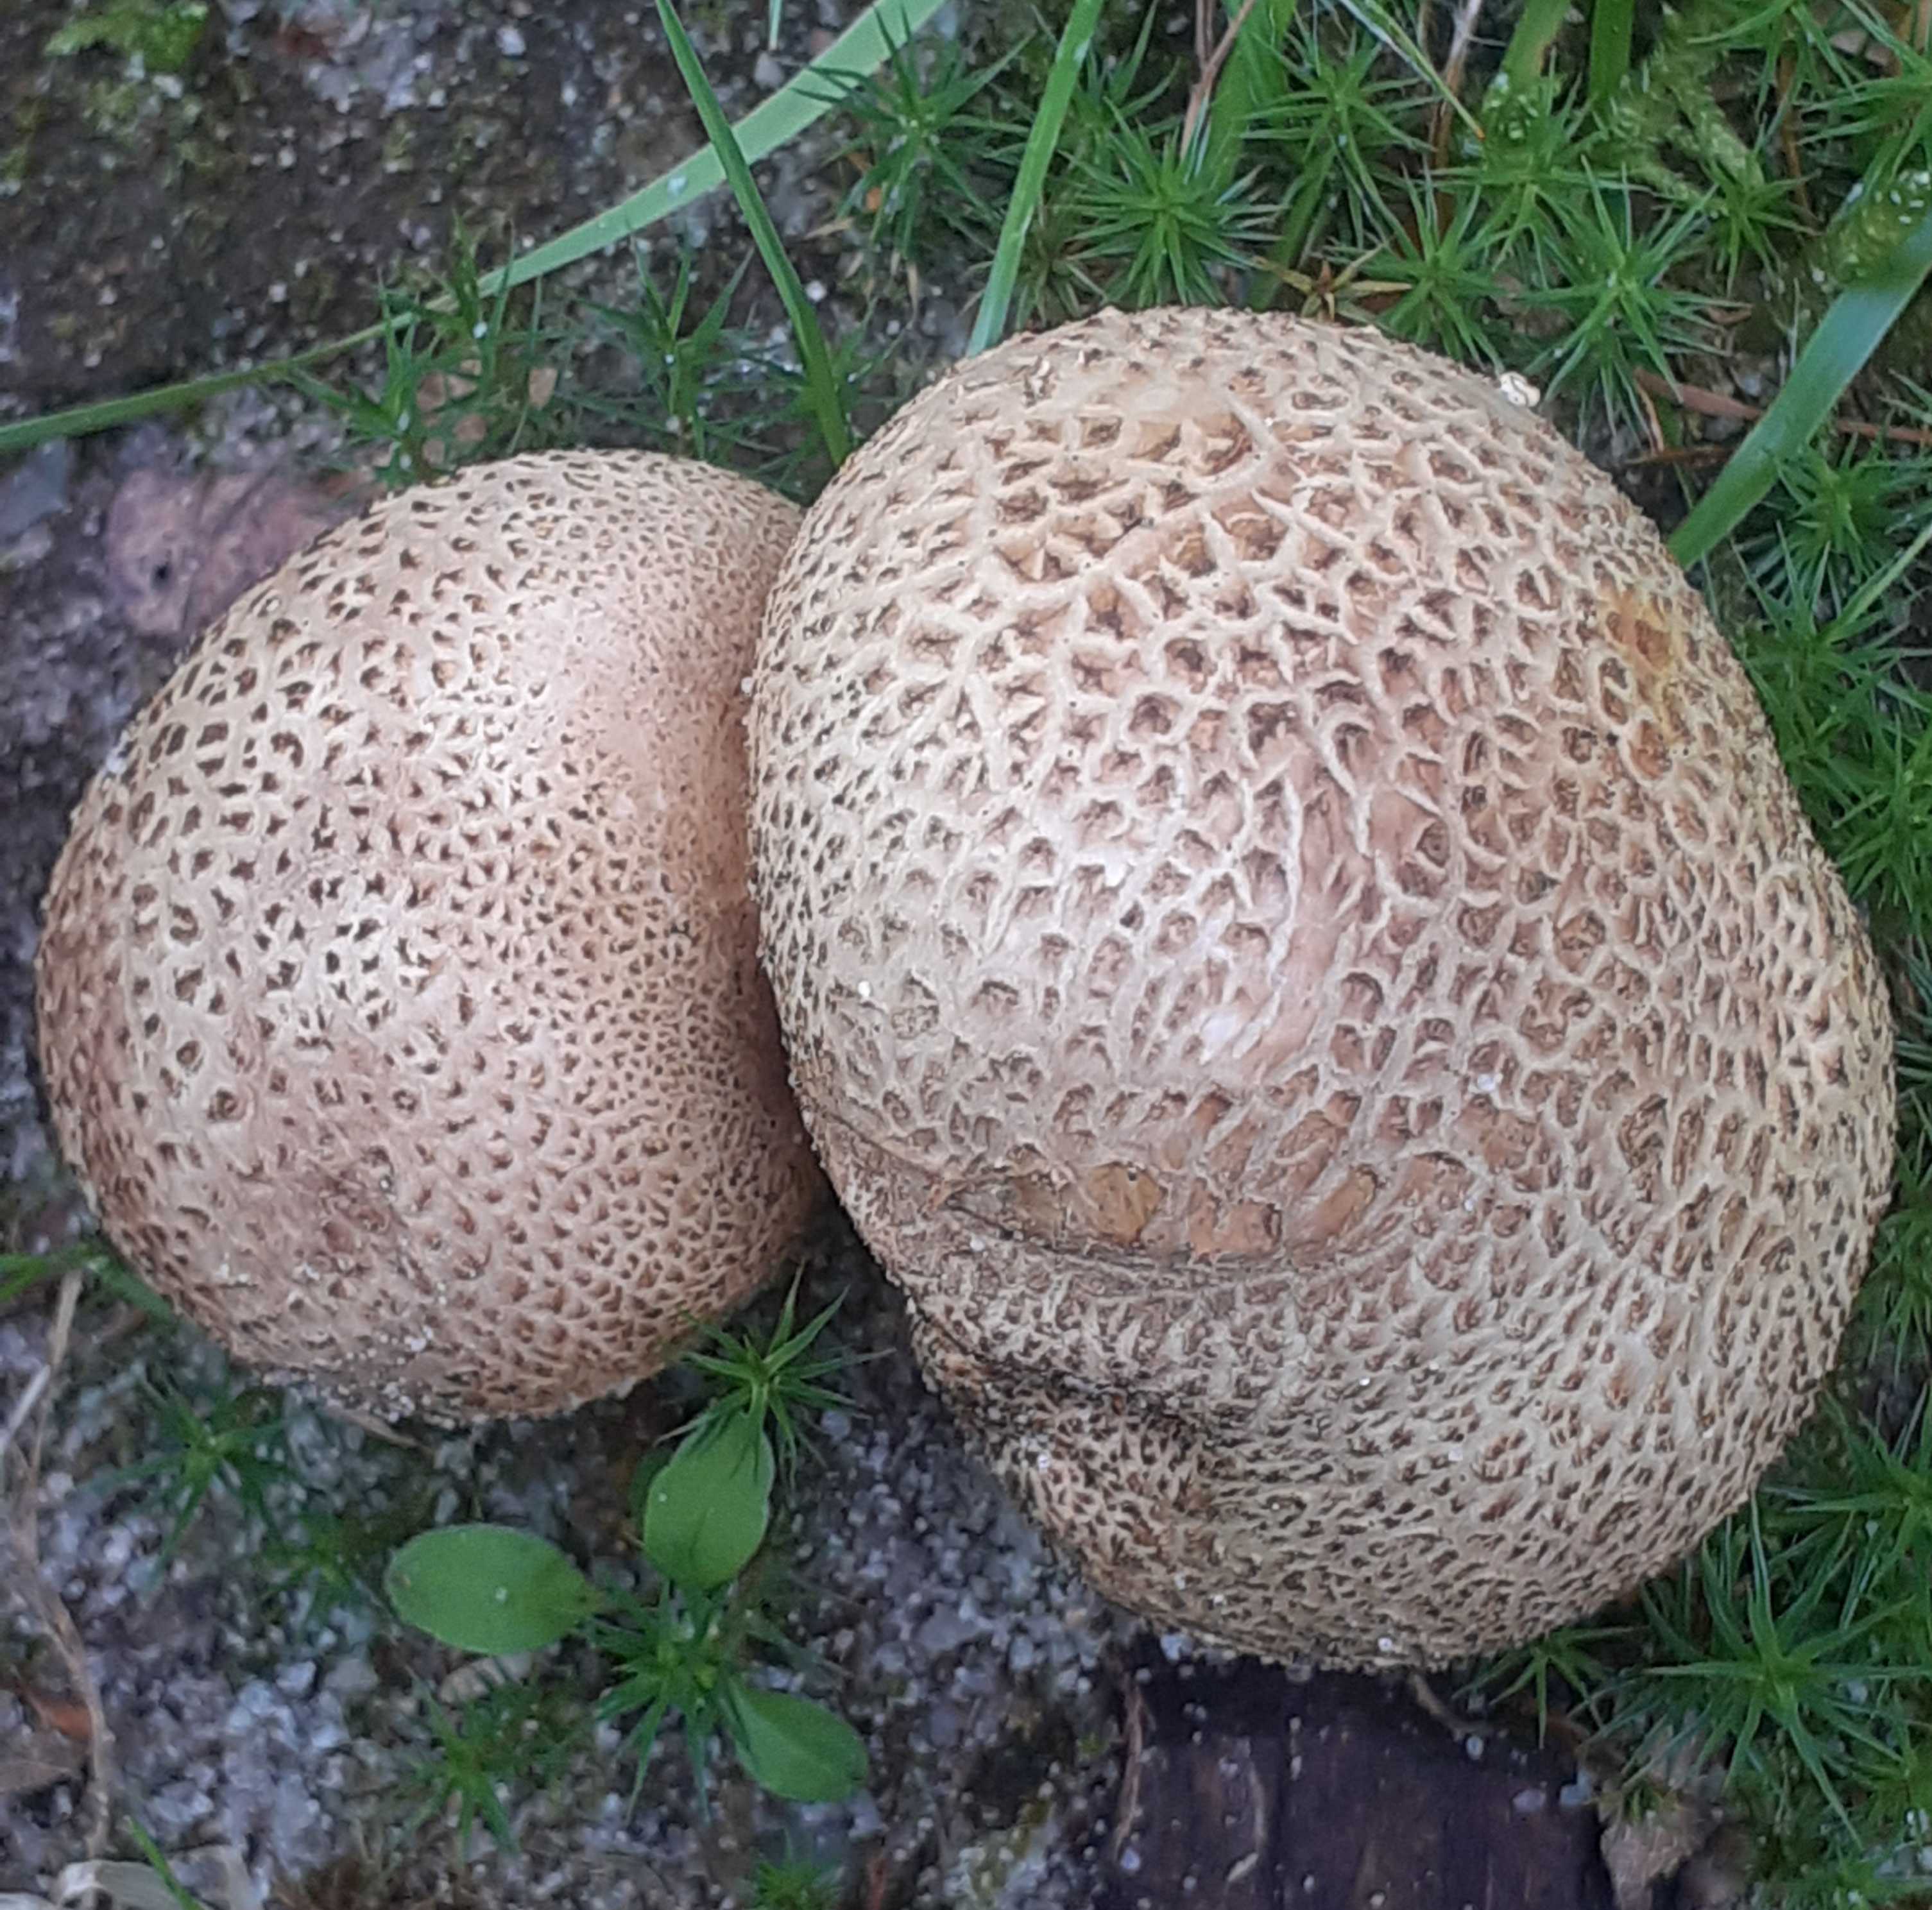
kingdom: Fungi
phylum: Basidiomycota
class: Agaricomycetes
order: Boletales
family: Sclerodermataceae
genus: Scleroderma
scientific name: Scleroderma citrinum
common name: almindelig bruskbold
